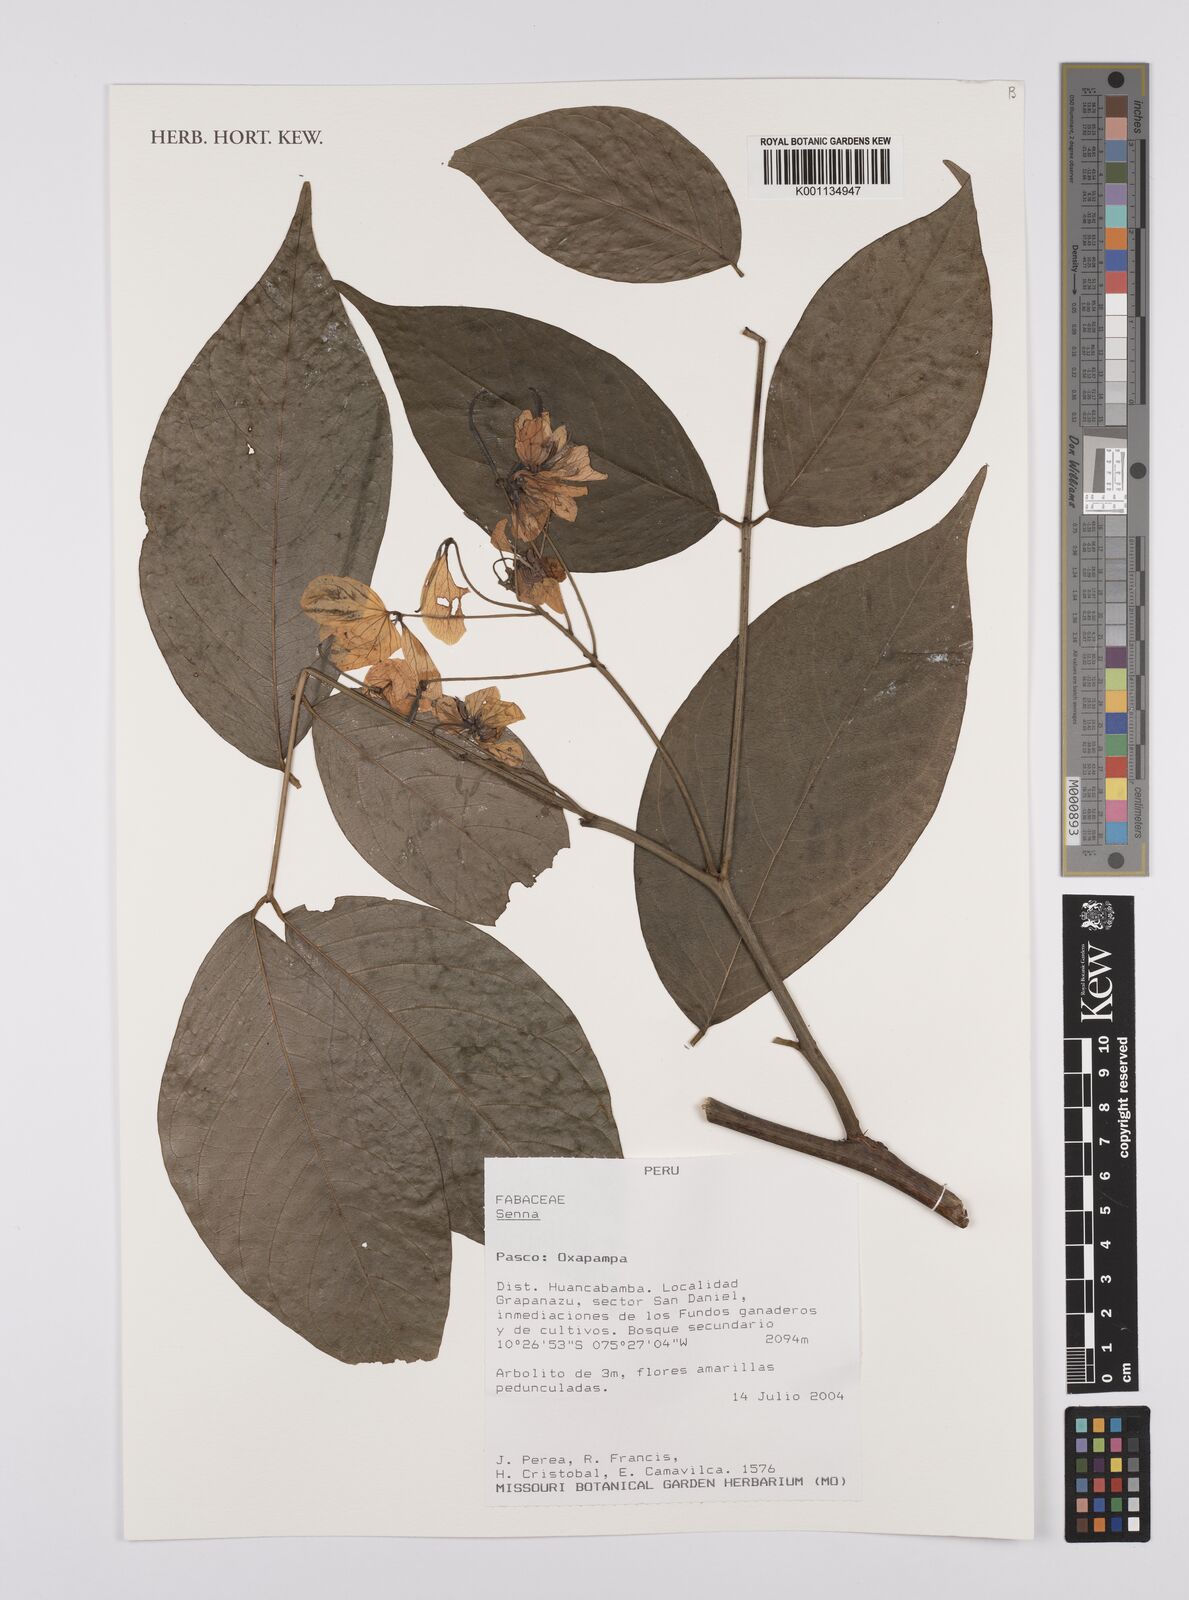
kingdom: Plantae
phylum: Tracheophyta
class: Magnoliopsida
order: Fabales
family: Fabaceae
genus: Senna
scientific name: Senna obliqua
